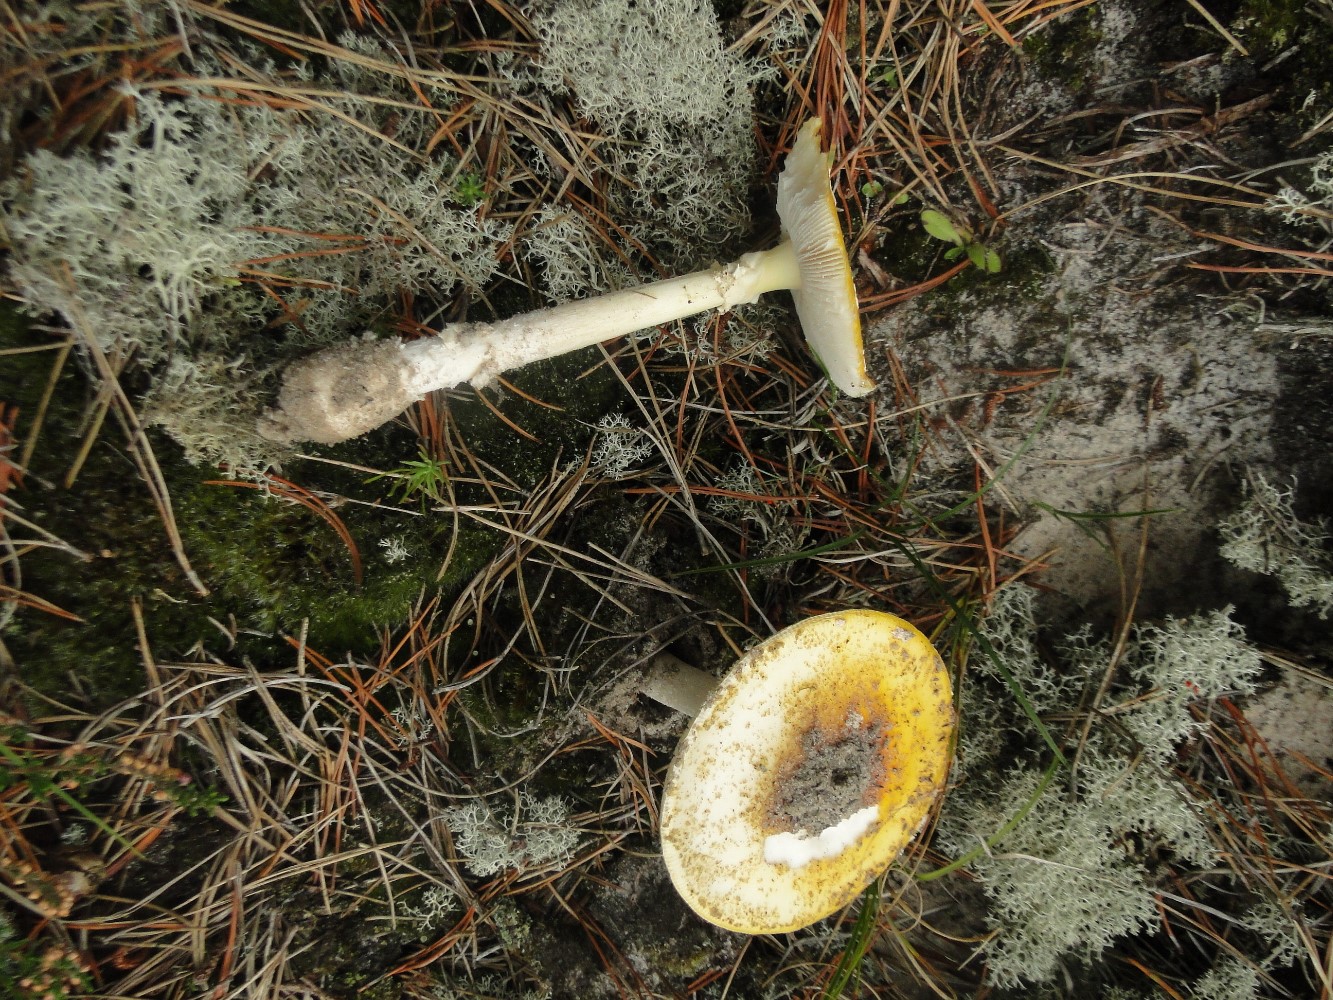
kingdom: Fungi
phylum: Basidiomycota
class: Agaricomycetes
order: Agaricales
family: Amanitaceae
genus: Amanita
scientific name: Amanita gemmata
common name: okkergul fluesvamp
